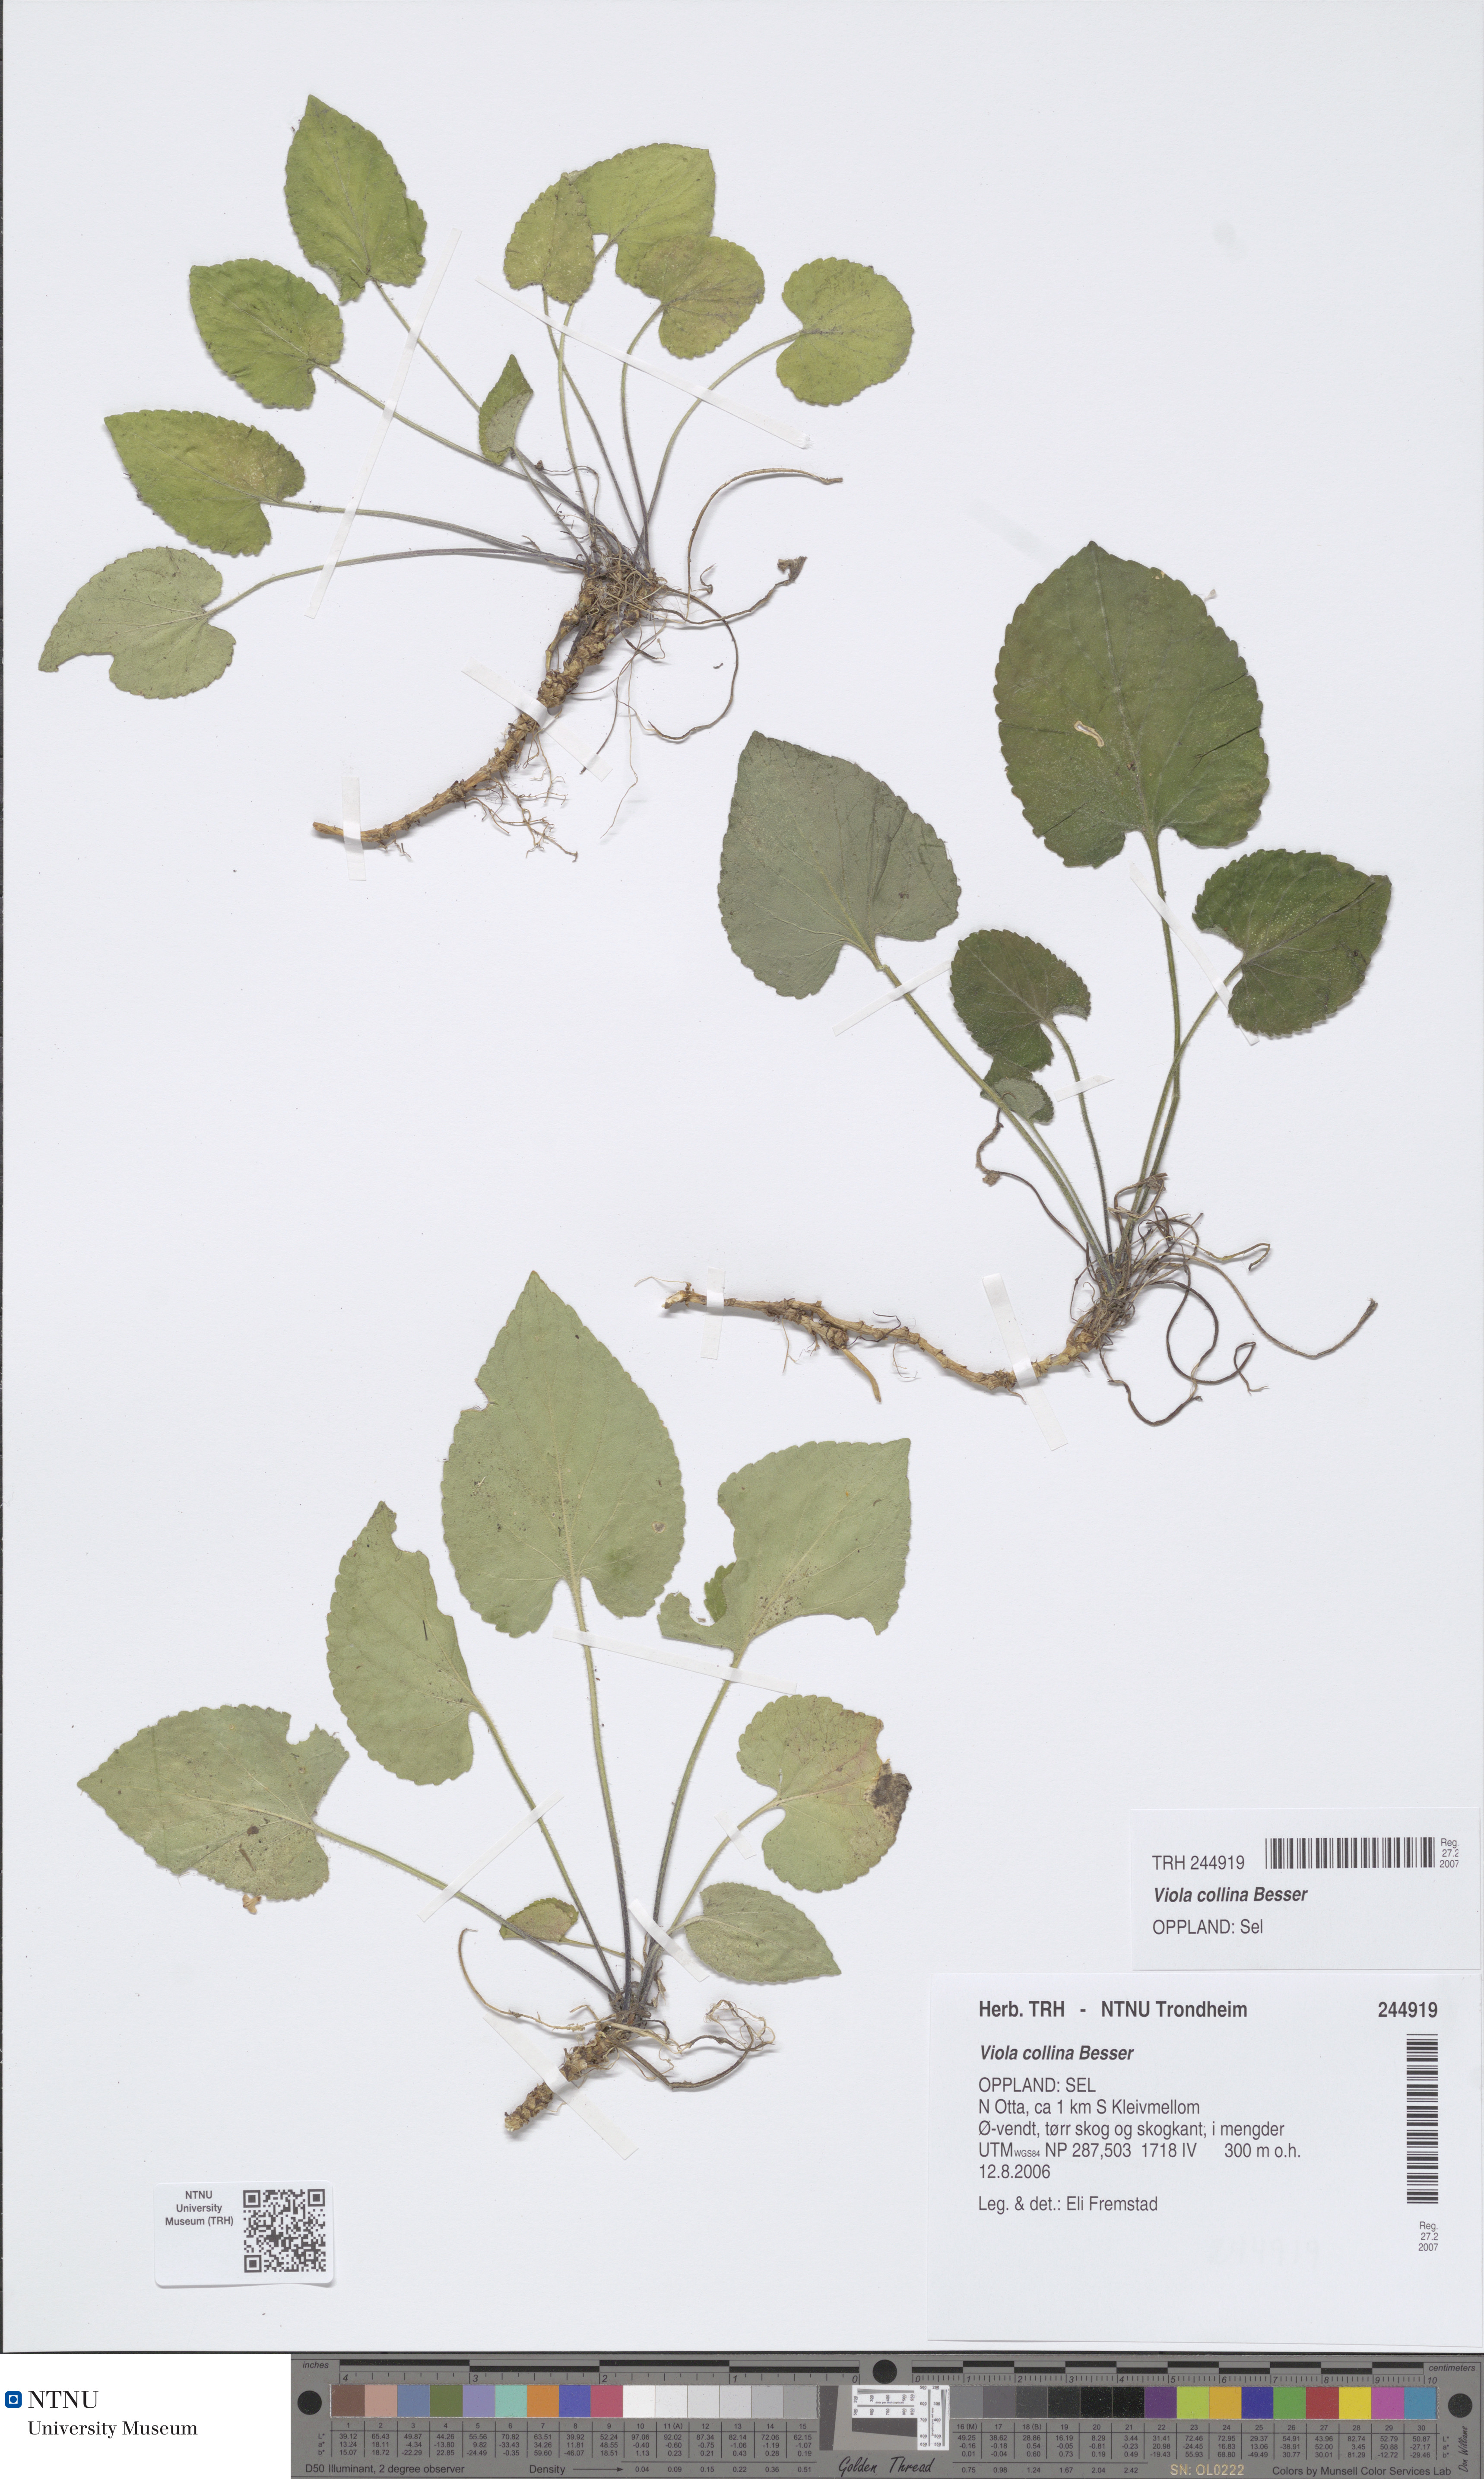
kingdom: Plantae
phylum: Tracheophyta
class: Magnoliopsida
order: Malpighiales
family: Violaceae
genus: Viola
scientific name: Viola collina
